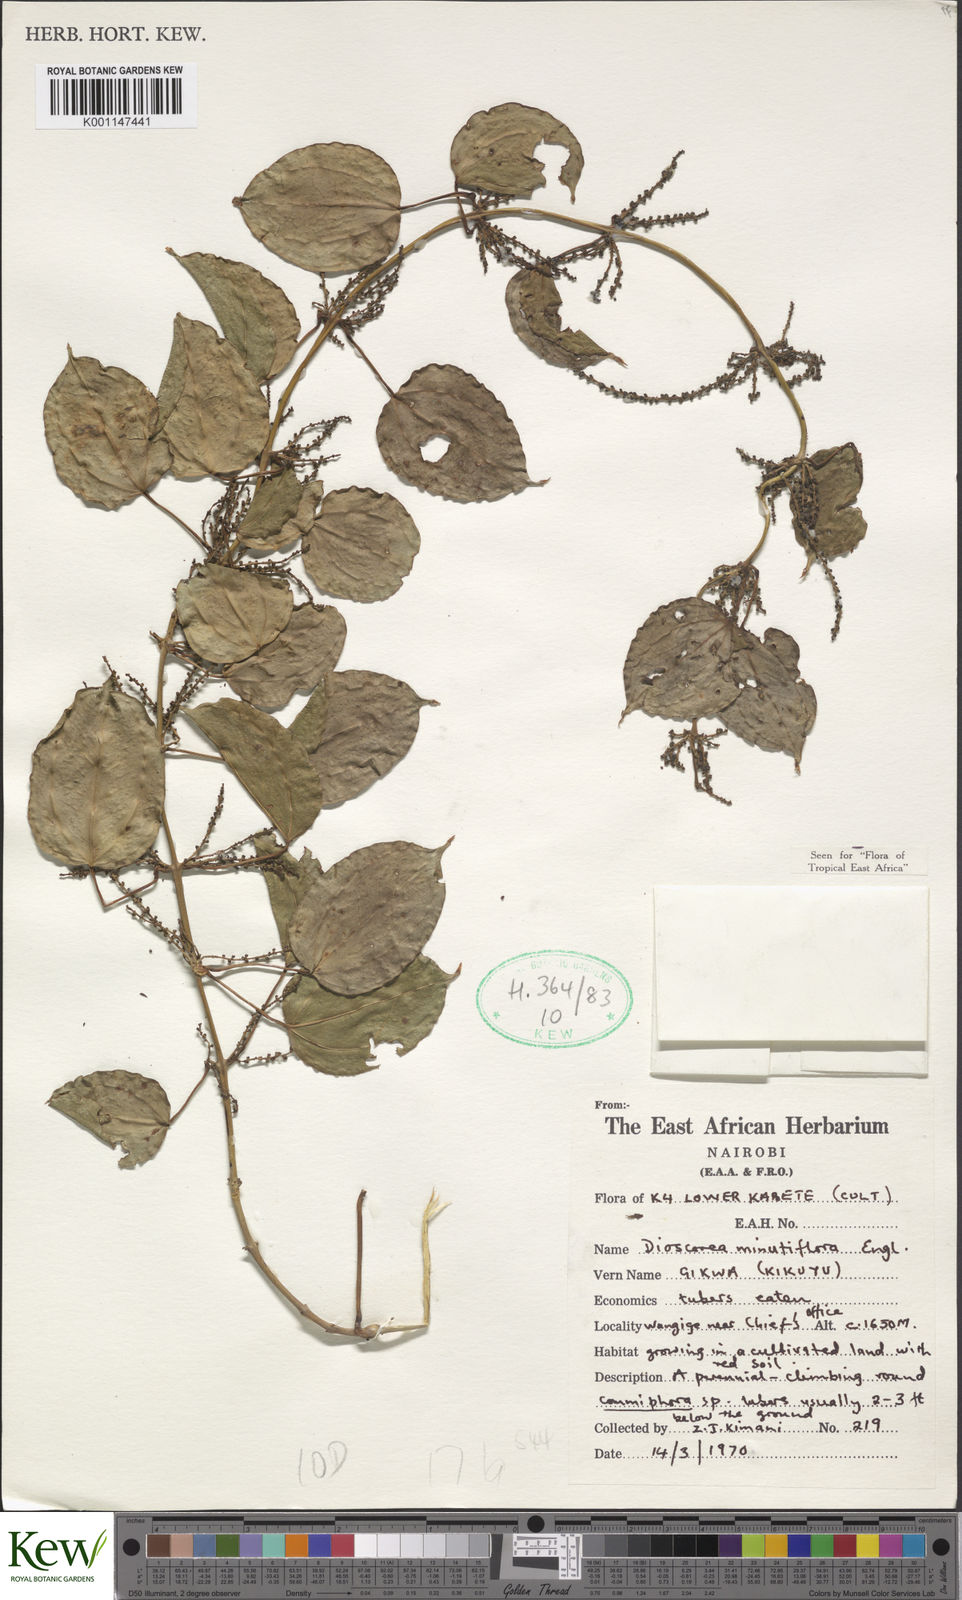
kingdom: Plantae
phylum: Tracheophyta
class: Liliopsida
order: Dioscoreales
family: Dioscoreaceae
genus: Dioscorea
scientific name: Dioscorea minutiflora
